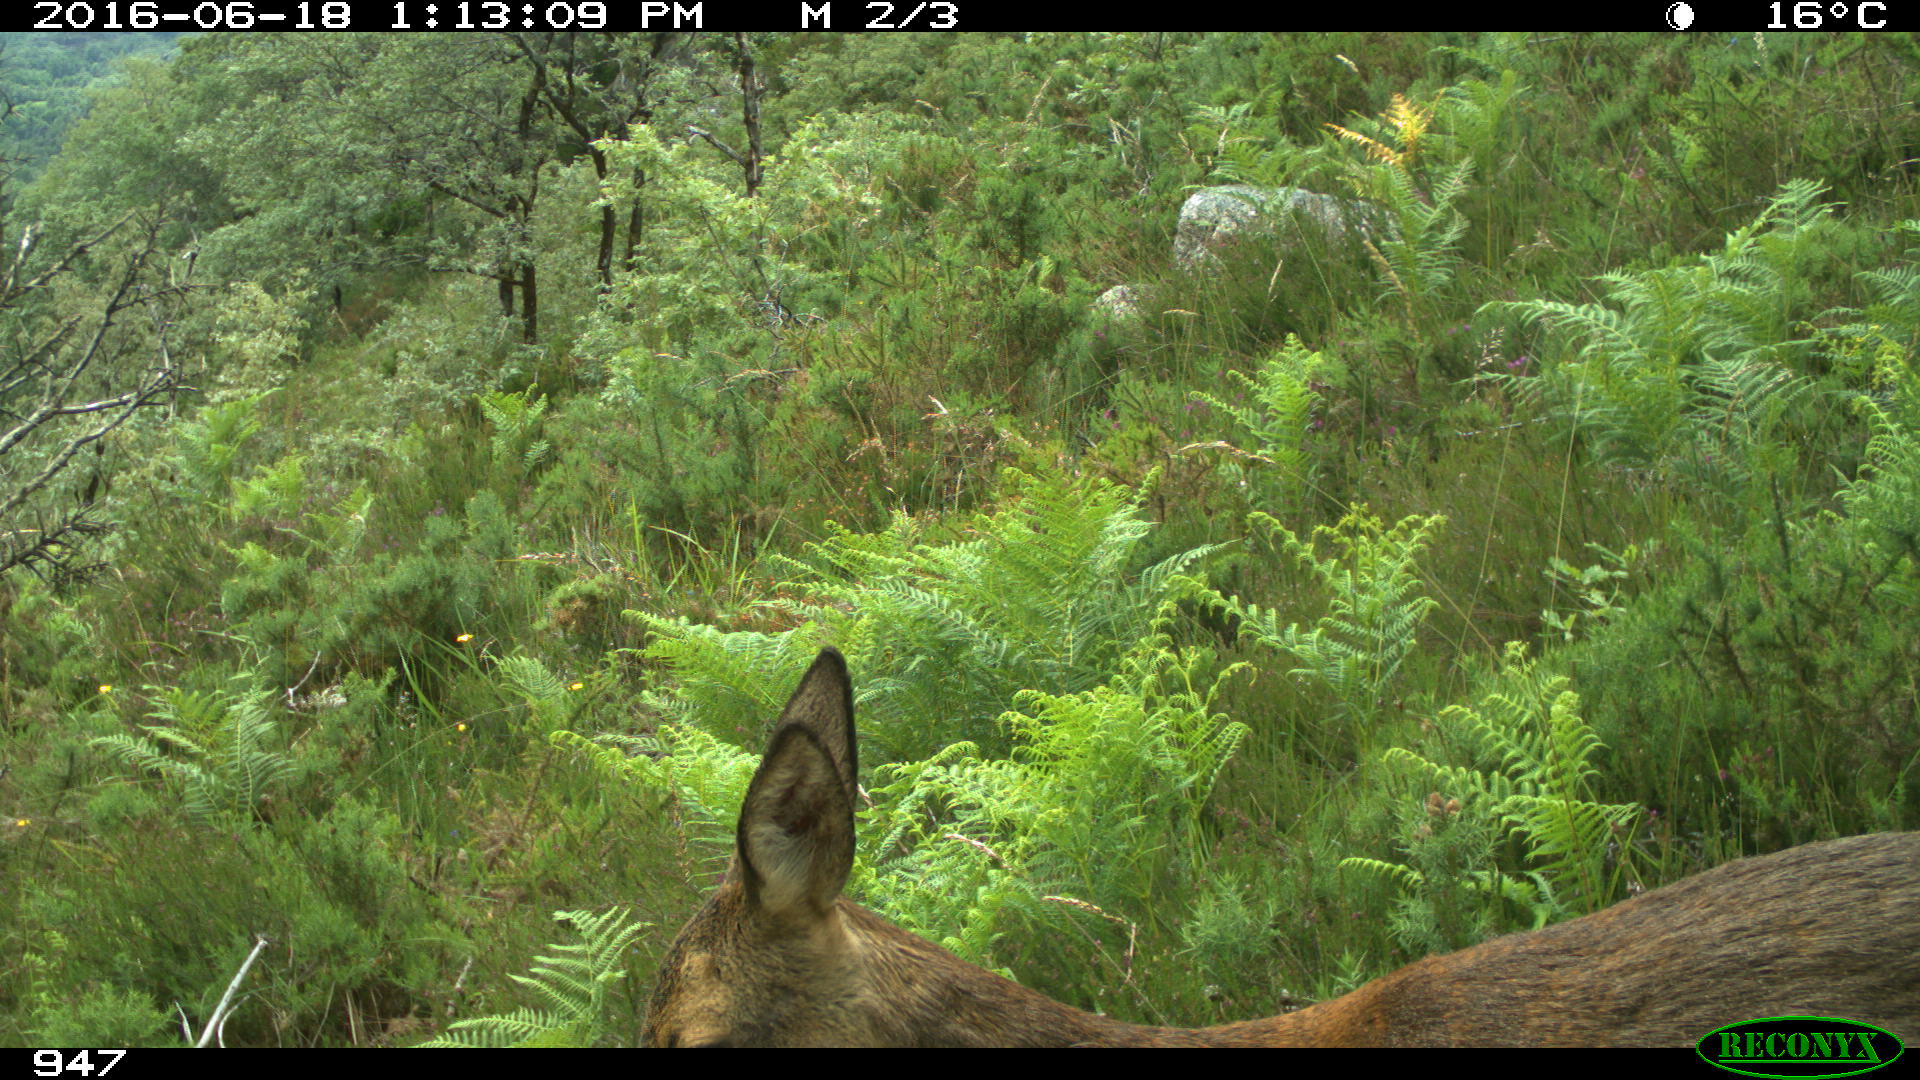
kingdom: Animalia
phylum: Chordata
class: Mammalia
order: Artiodactyla
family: Cervidae
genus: Capreolus
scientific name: Capreolus capreolus
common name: Western roe deer
